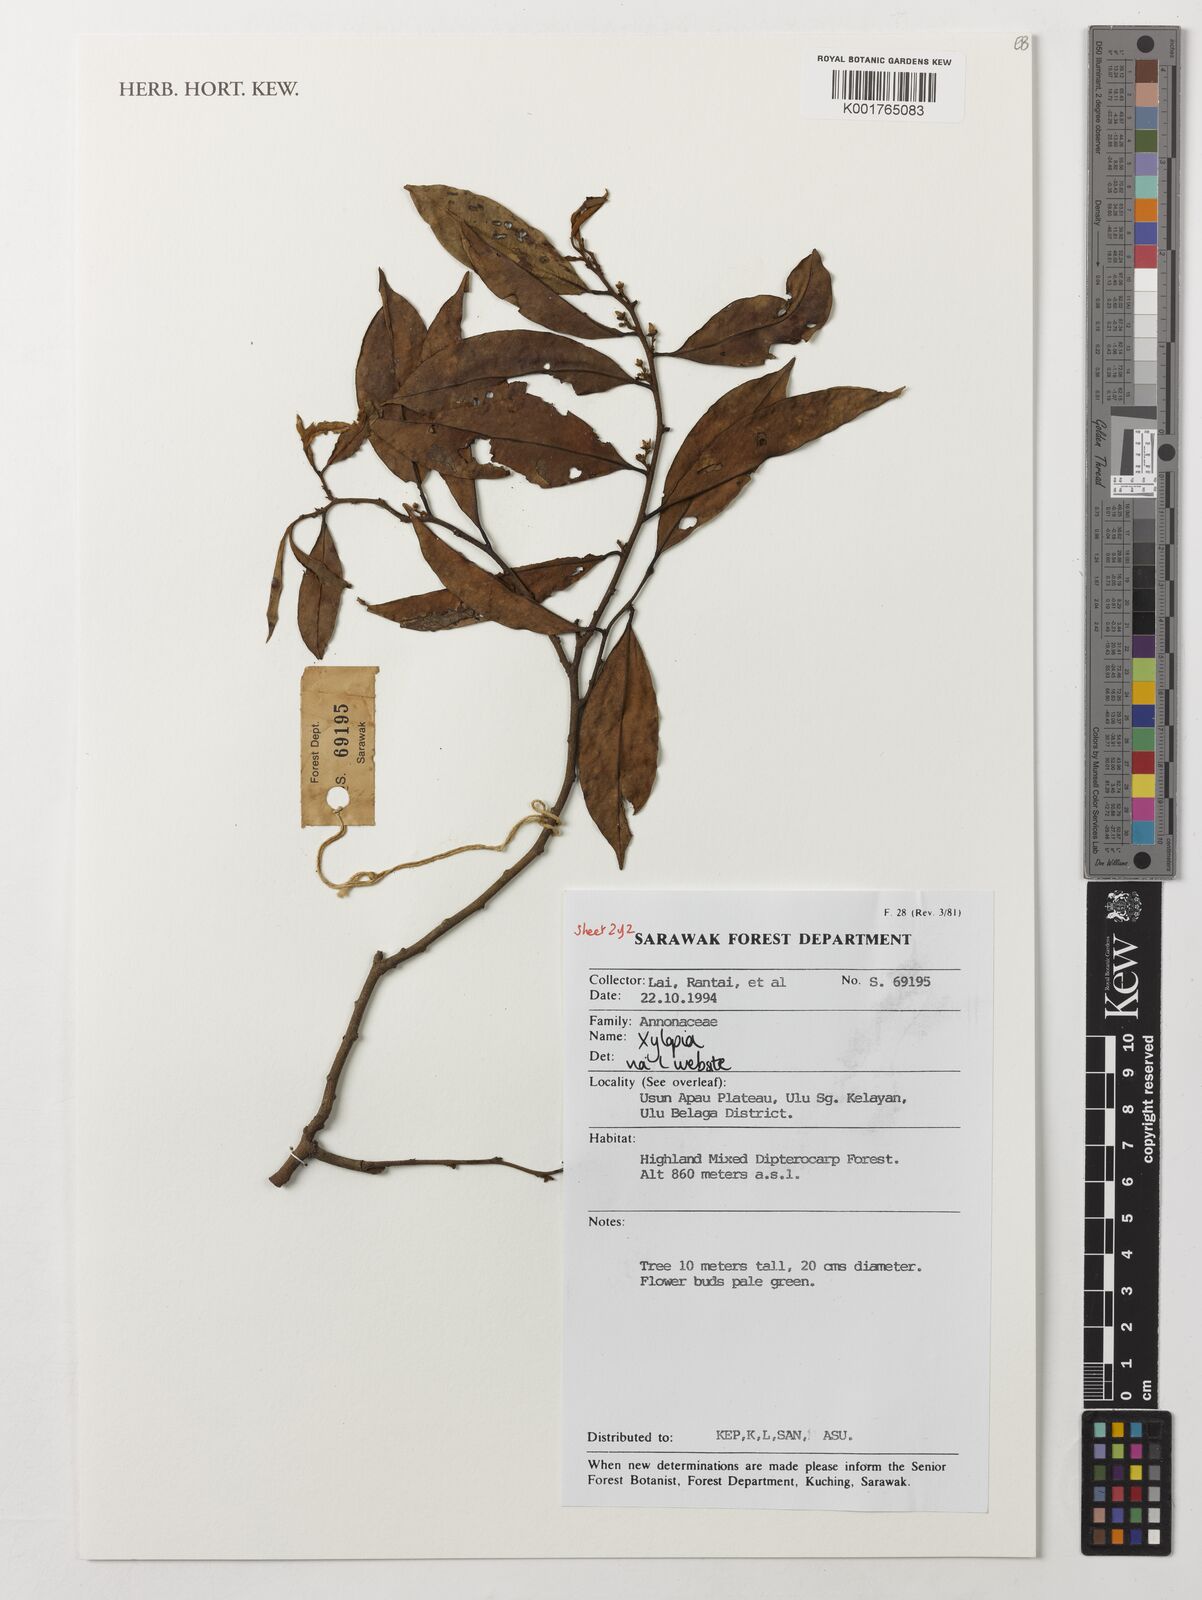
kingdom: Plantae
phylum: Tracheophyta
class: Magnoliopsida
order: Magnoliales
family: Annonaceae
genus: Xylopia
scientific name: Xylopia
